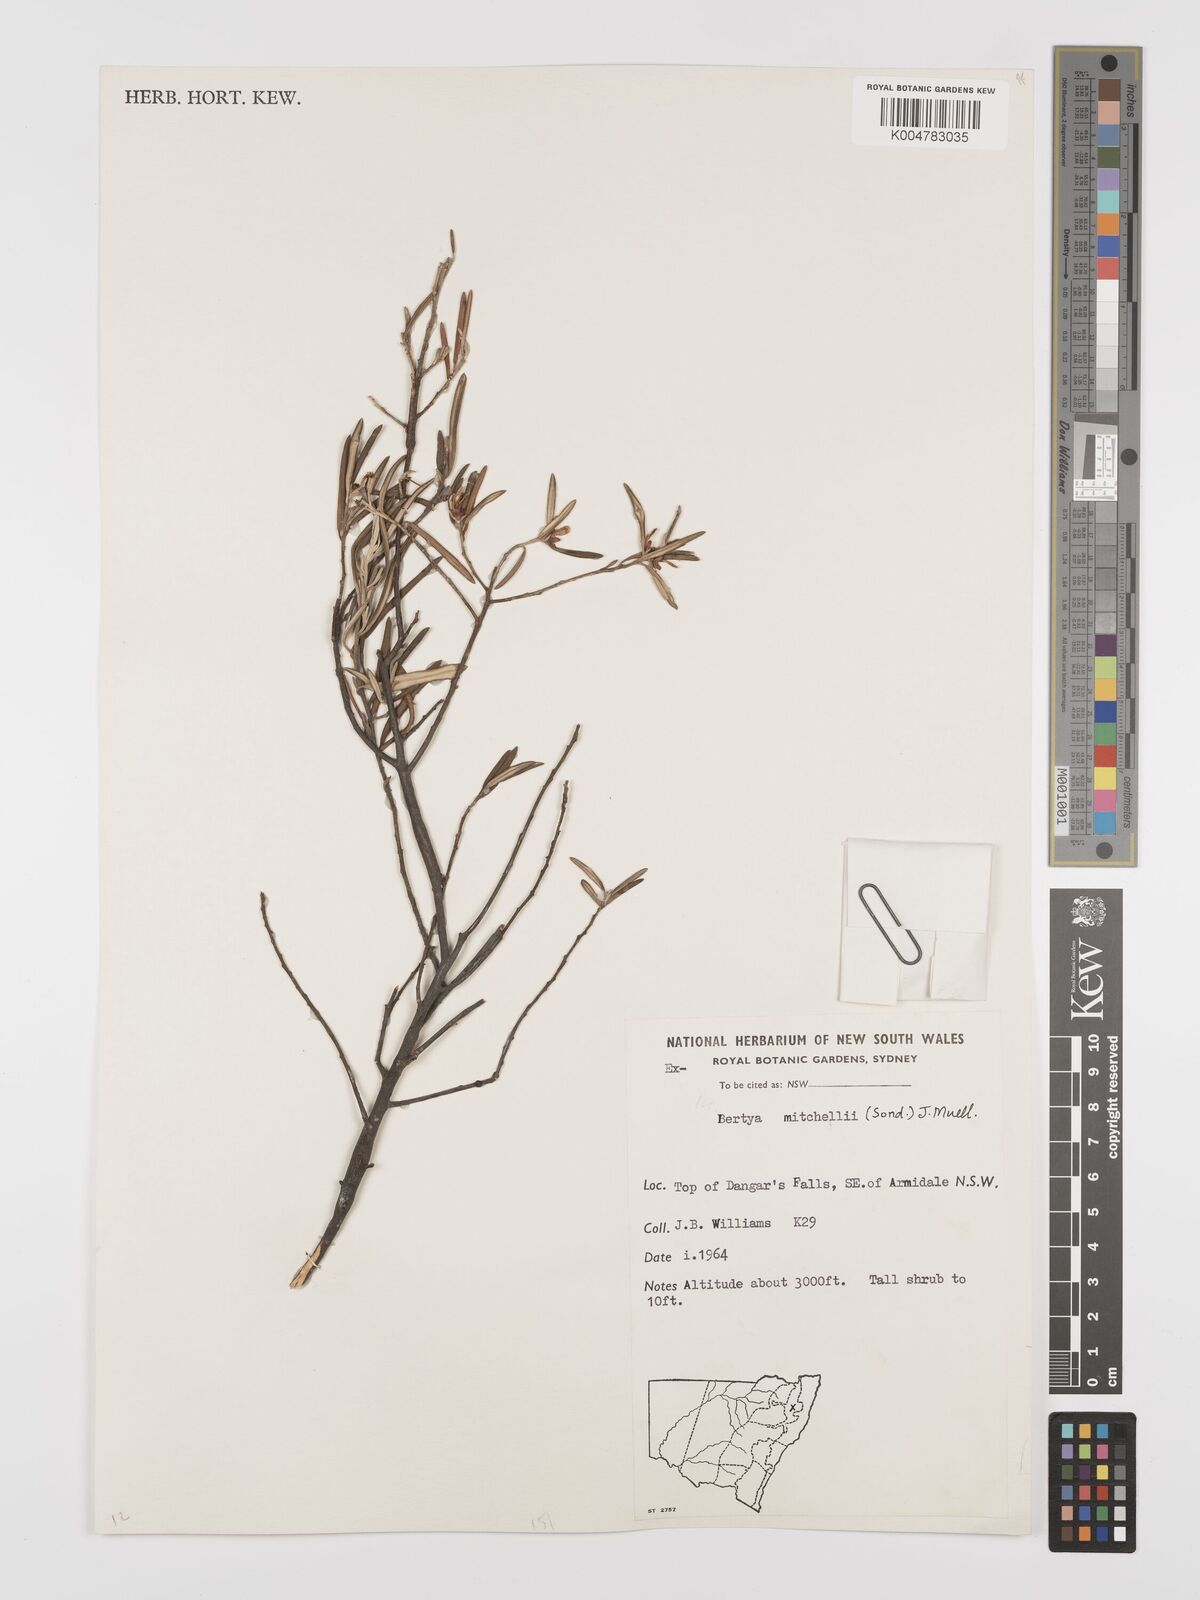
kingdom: Plantae
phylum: Tracheophyta
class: Magnoliopsida
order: Malpighiales
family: Euphorbiaceae
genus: Bertya
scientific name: Bertya oleifolia
